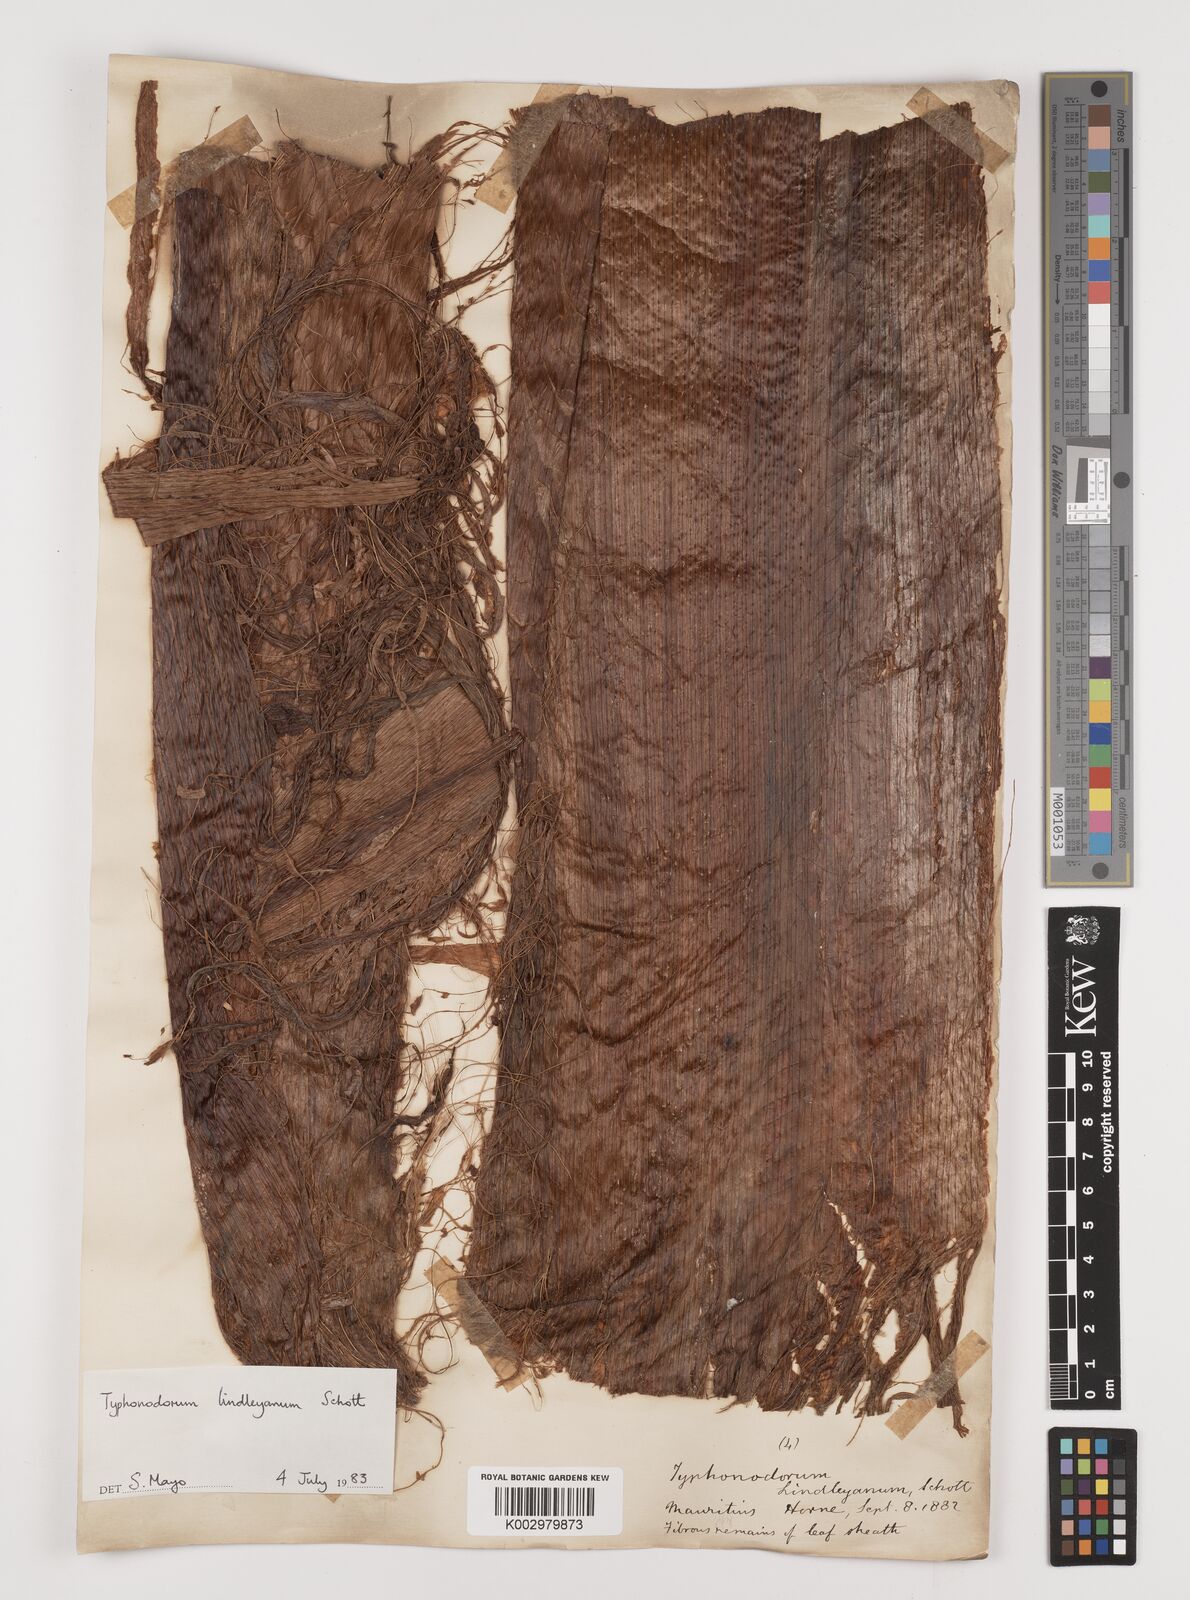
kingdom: Plantae
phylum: Tracheophyta
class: Liliopsida
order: Alismatales
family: Araceae
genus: Typhonodorum
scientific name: Typhonodorum lindleyanum
